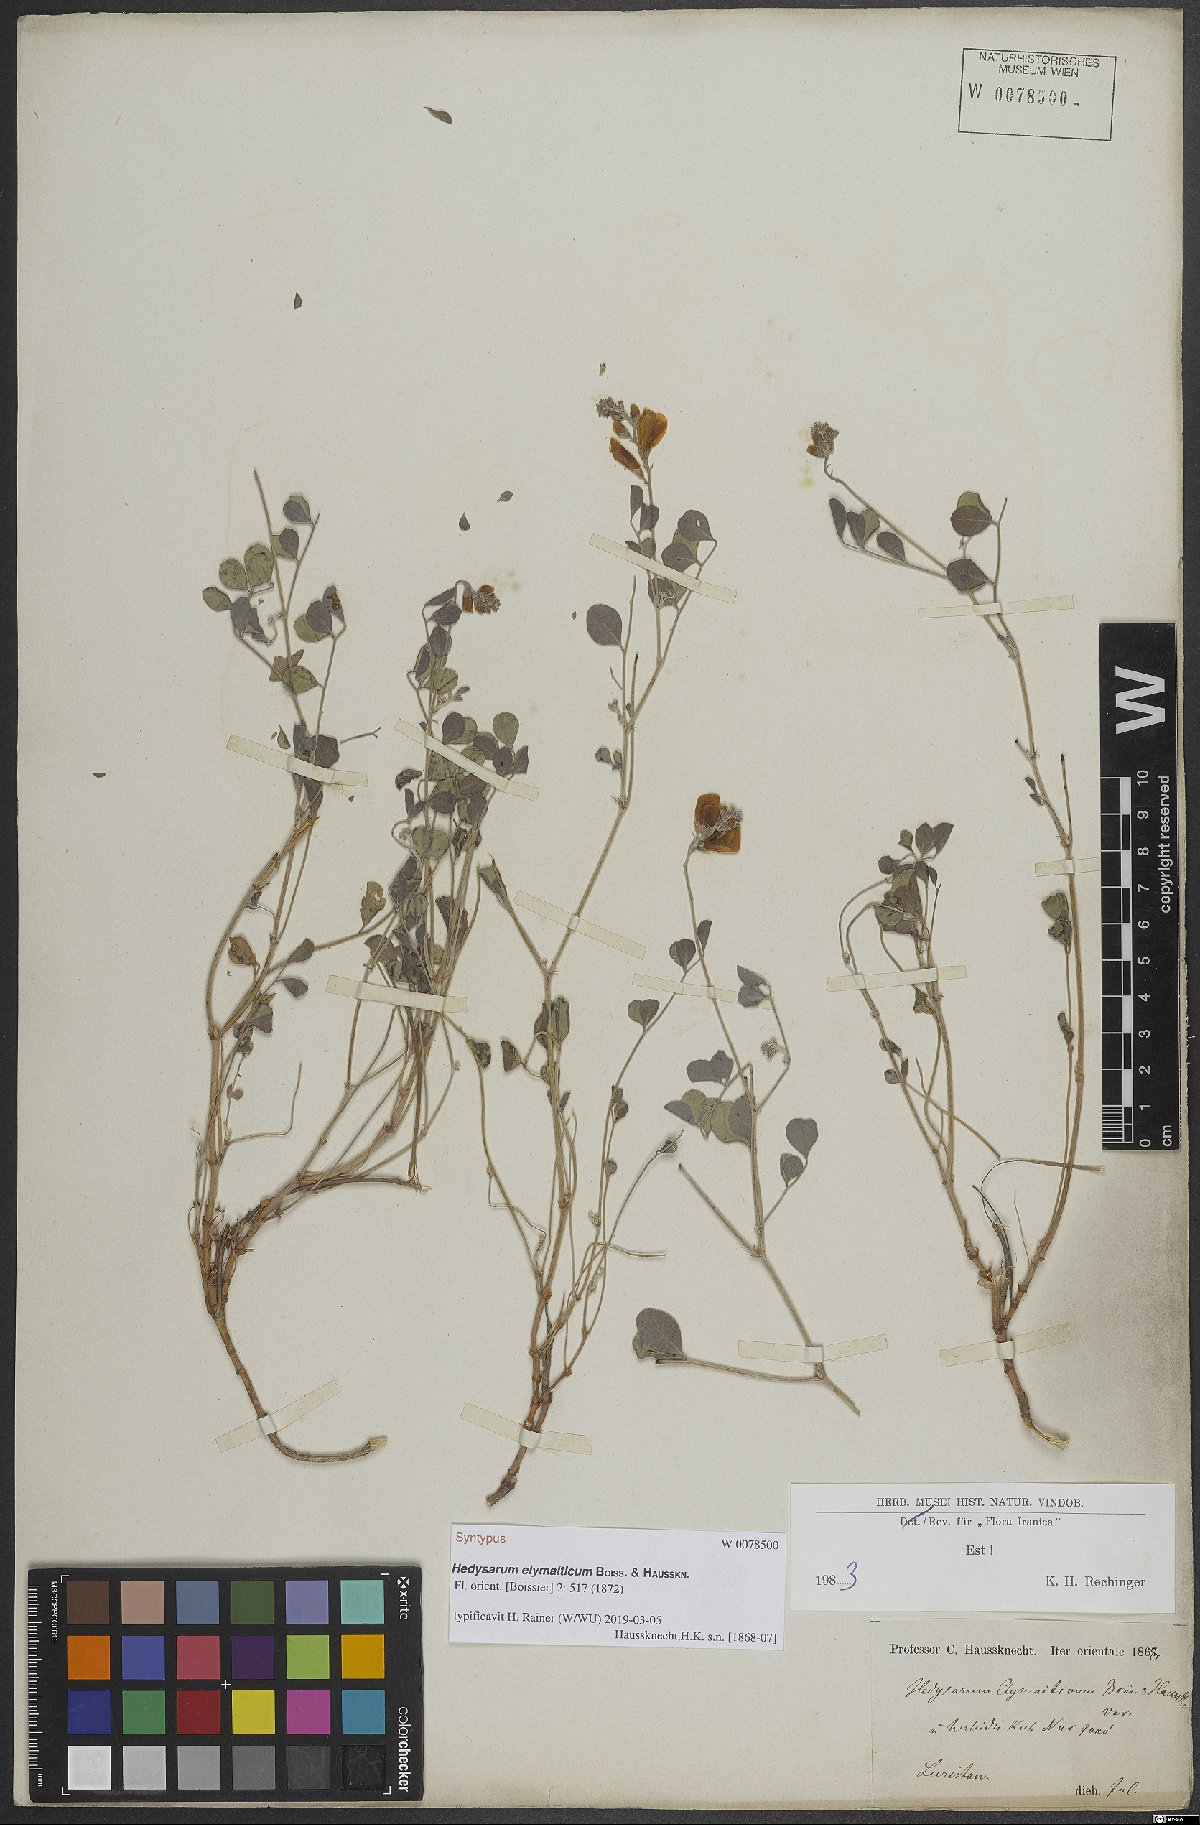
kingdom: Plantae
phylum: Tracheophyta
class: Magnoliopsida
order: Fabales
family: Fabaceae
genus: Hedysarum
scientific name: Hedysarum elymaiticum
